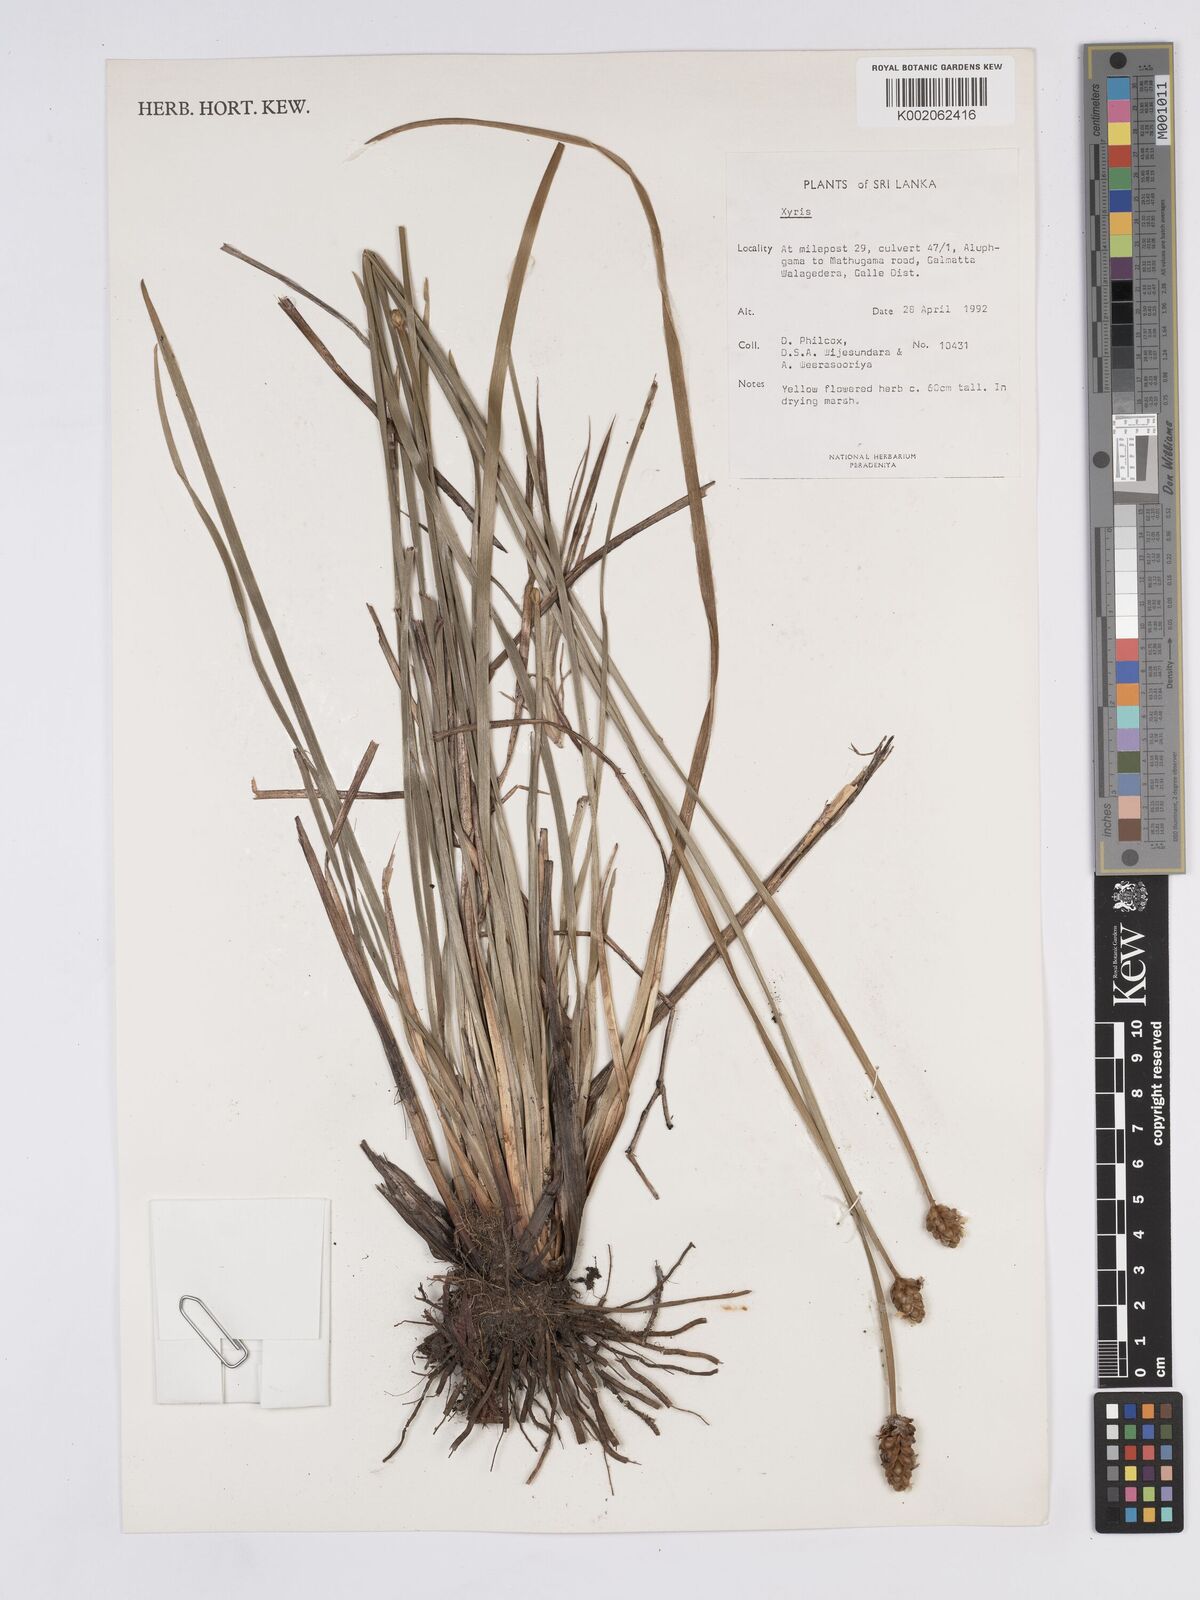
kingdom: Plantae
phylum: Tracheophyta
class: Liliopsida
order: Poales
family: Xyridaceae
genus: Xyris
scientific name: Xyris
